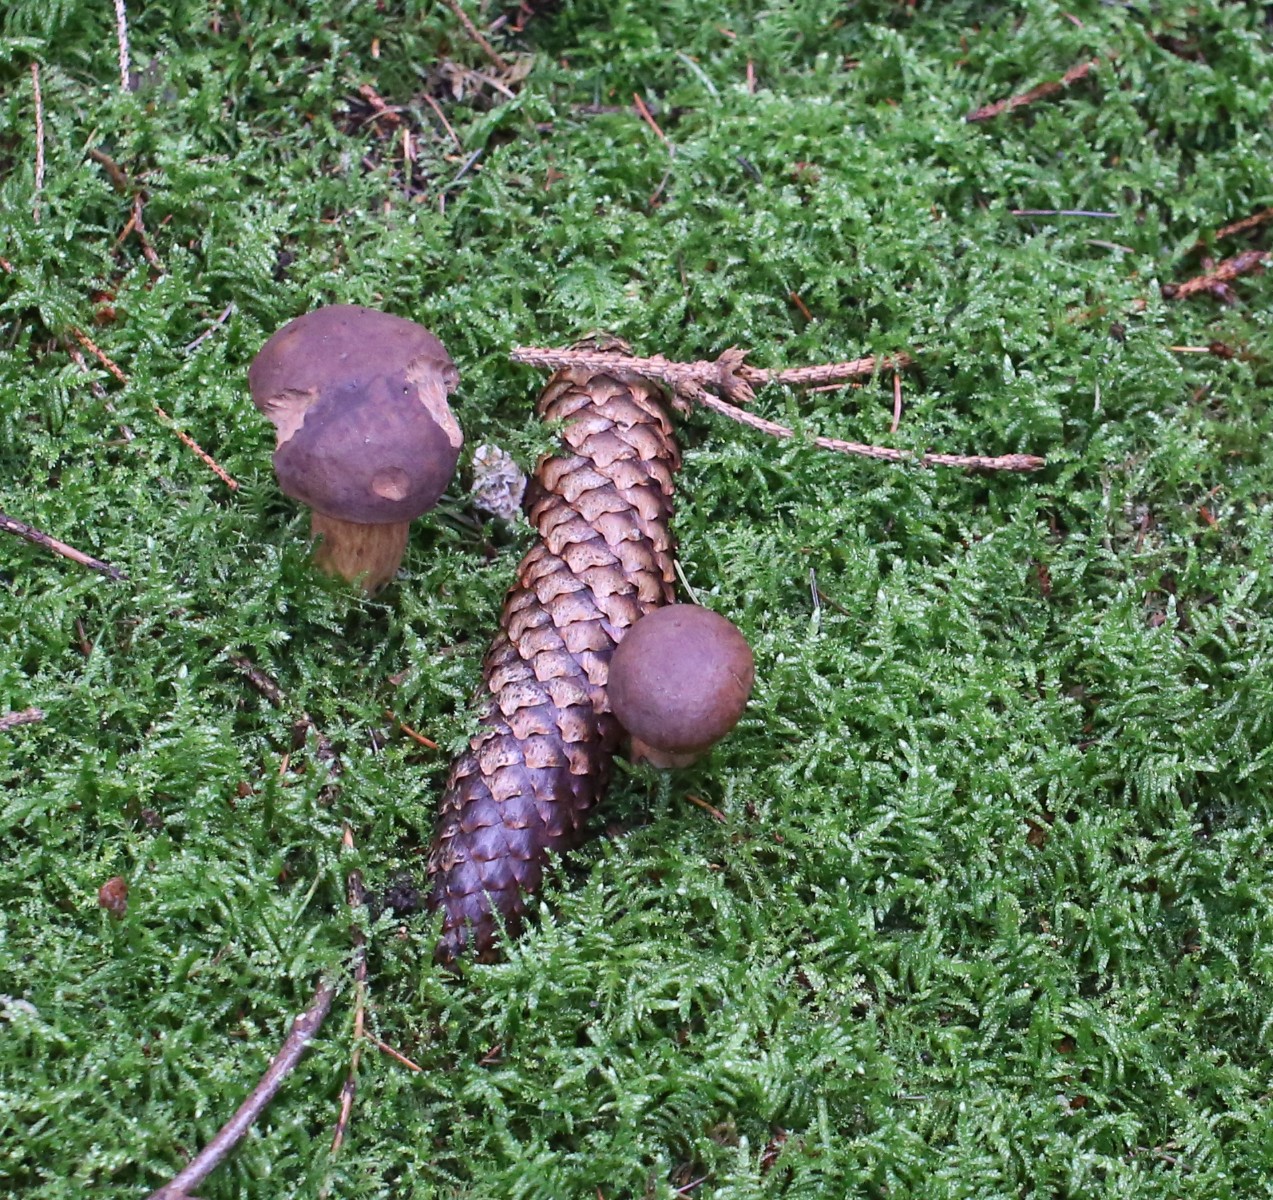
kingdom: Fungi
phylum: Basidiomycota
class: Agaricomycetes
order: Boletales
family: Boletaceae
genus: Imleria
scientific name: Imleria badia
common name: brunstokket rørhat
